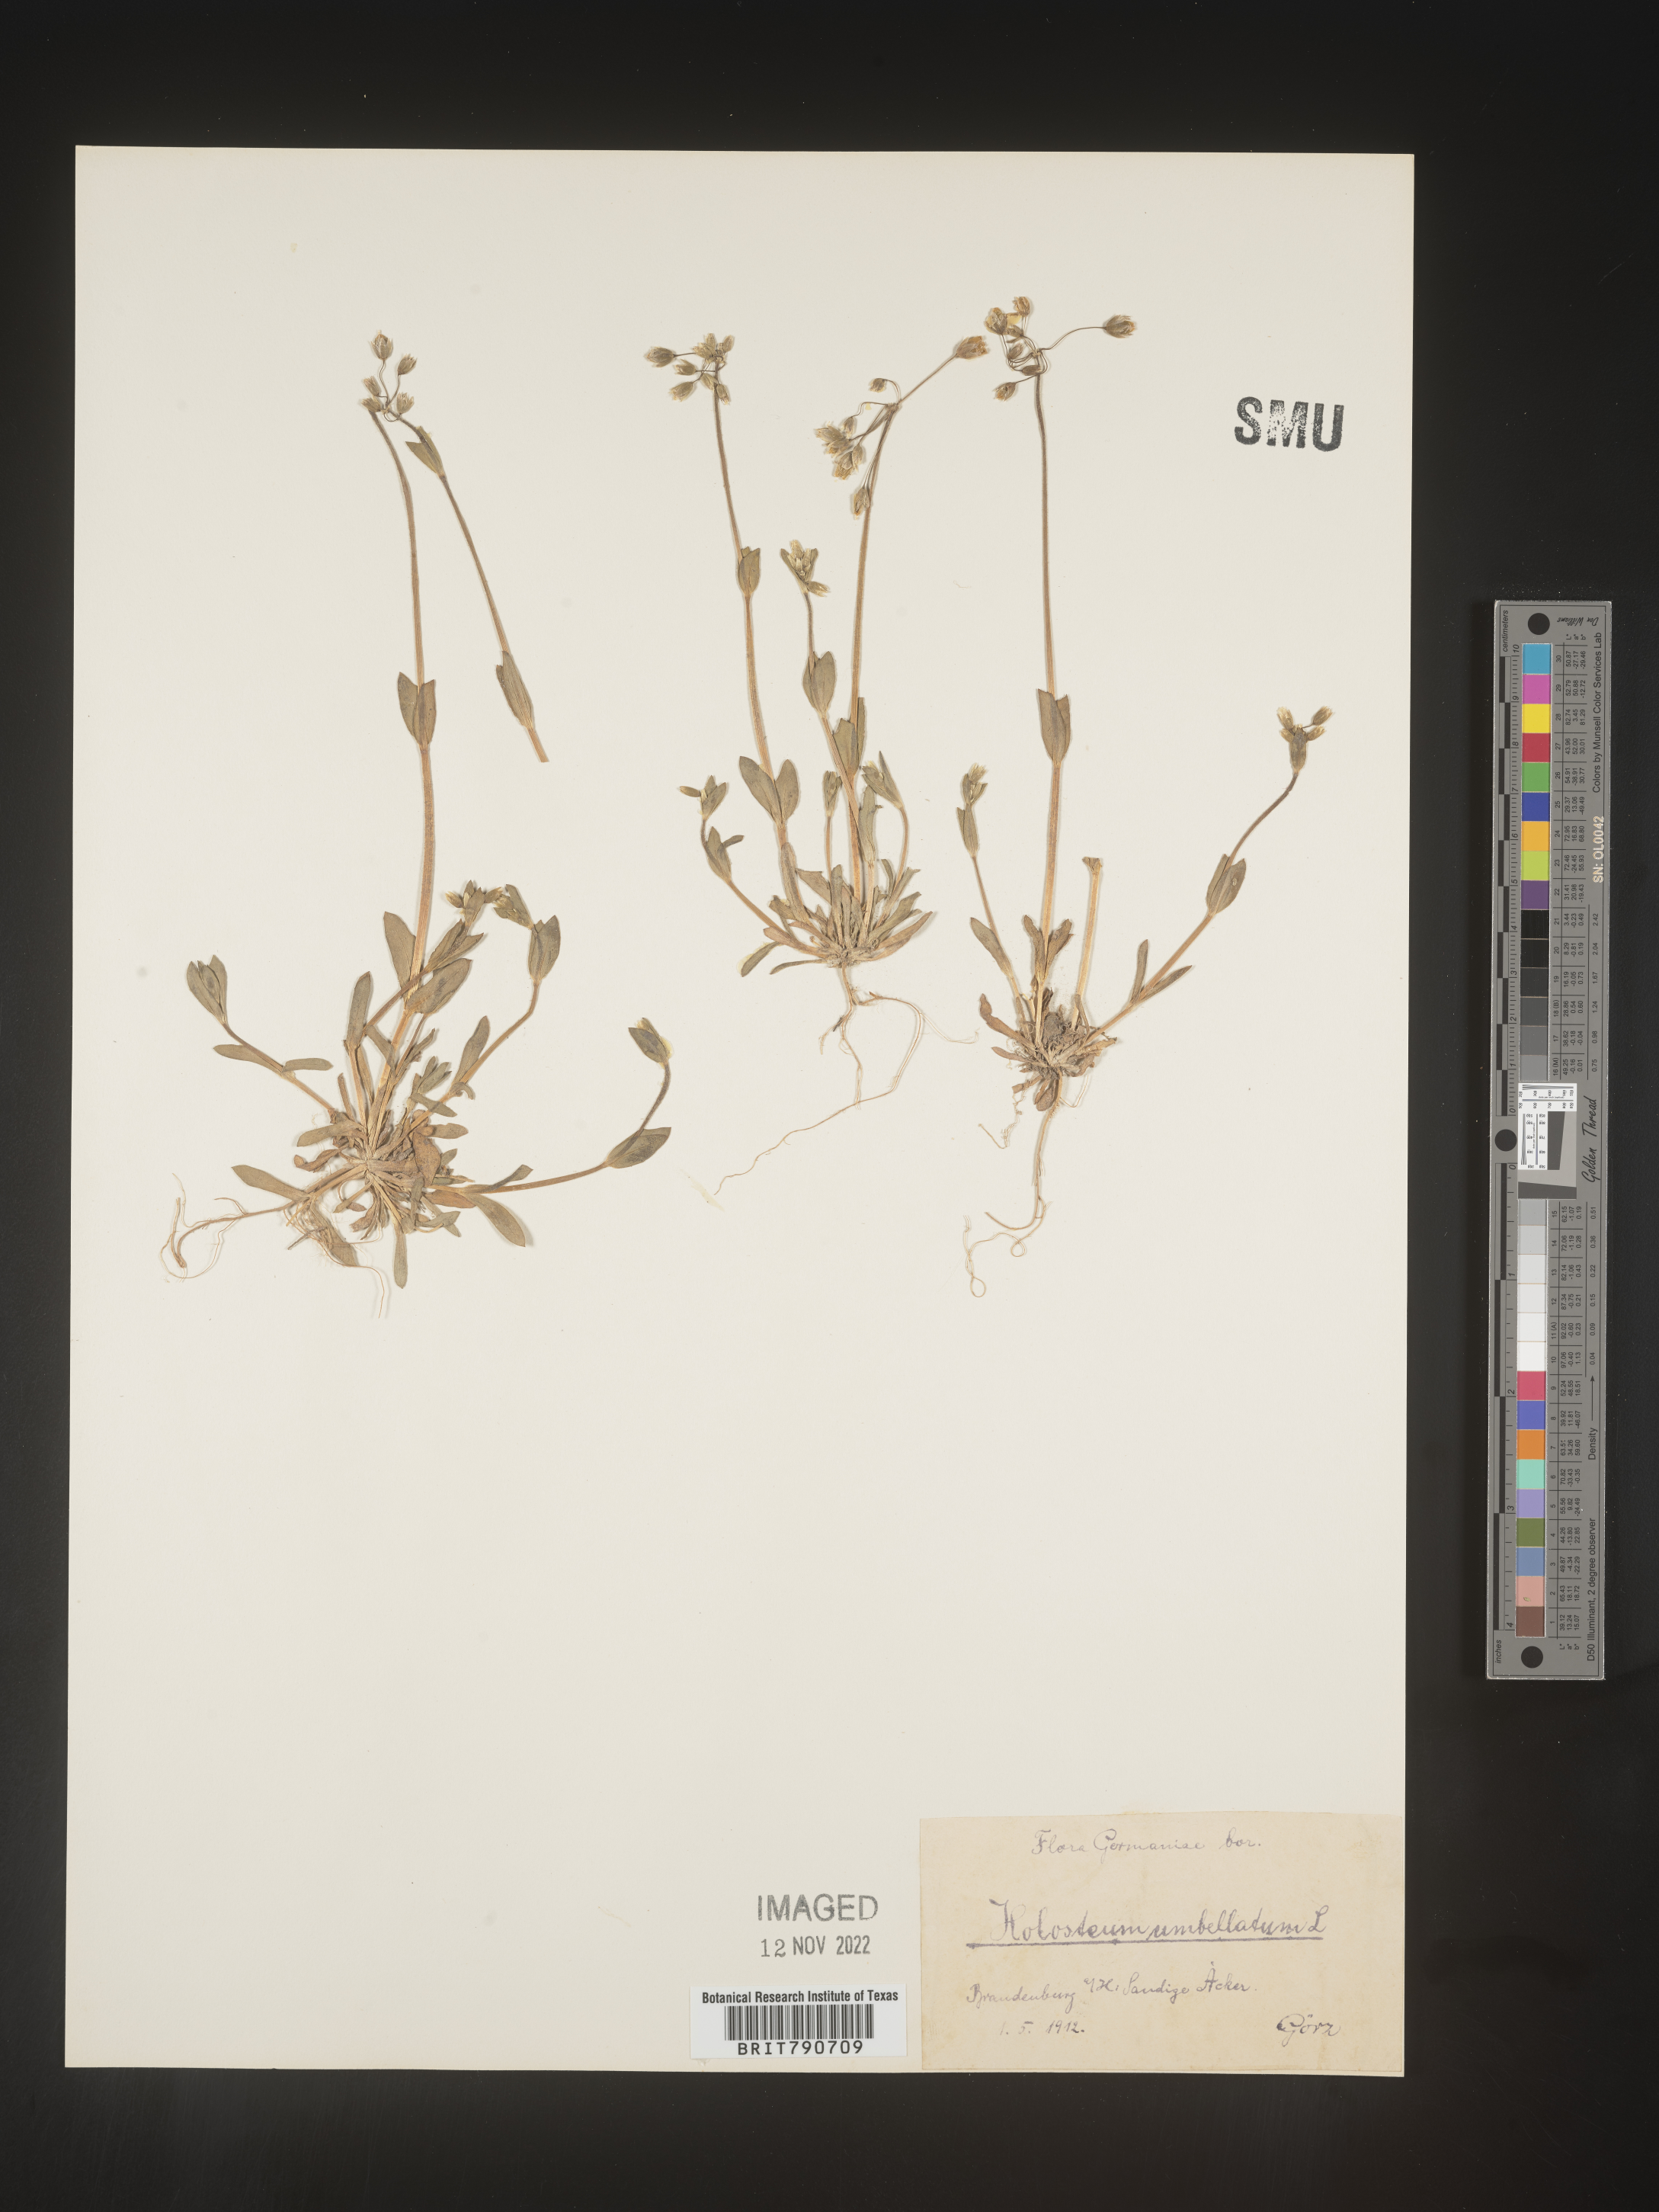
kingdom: Plantae
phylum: Tracheophyta
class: Magnoliopsida
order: Caryophyllales
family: Caryophyllaceae
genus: Holosteum
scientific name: Holosteum
